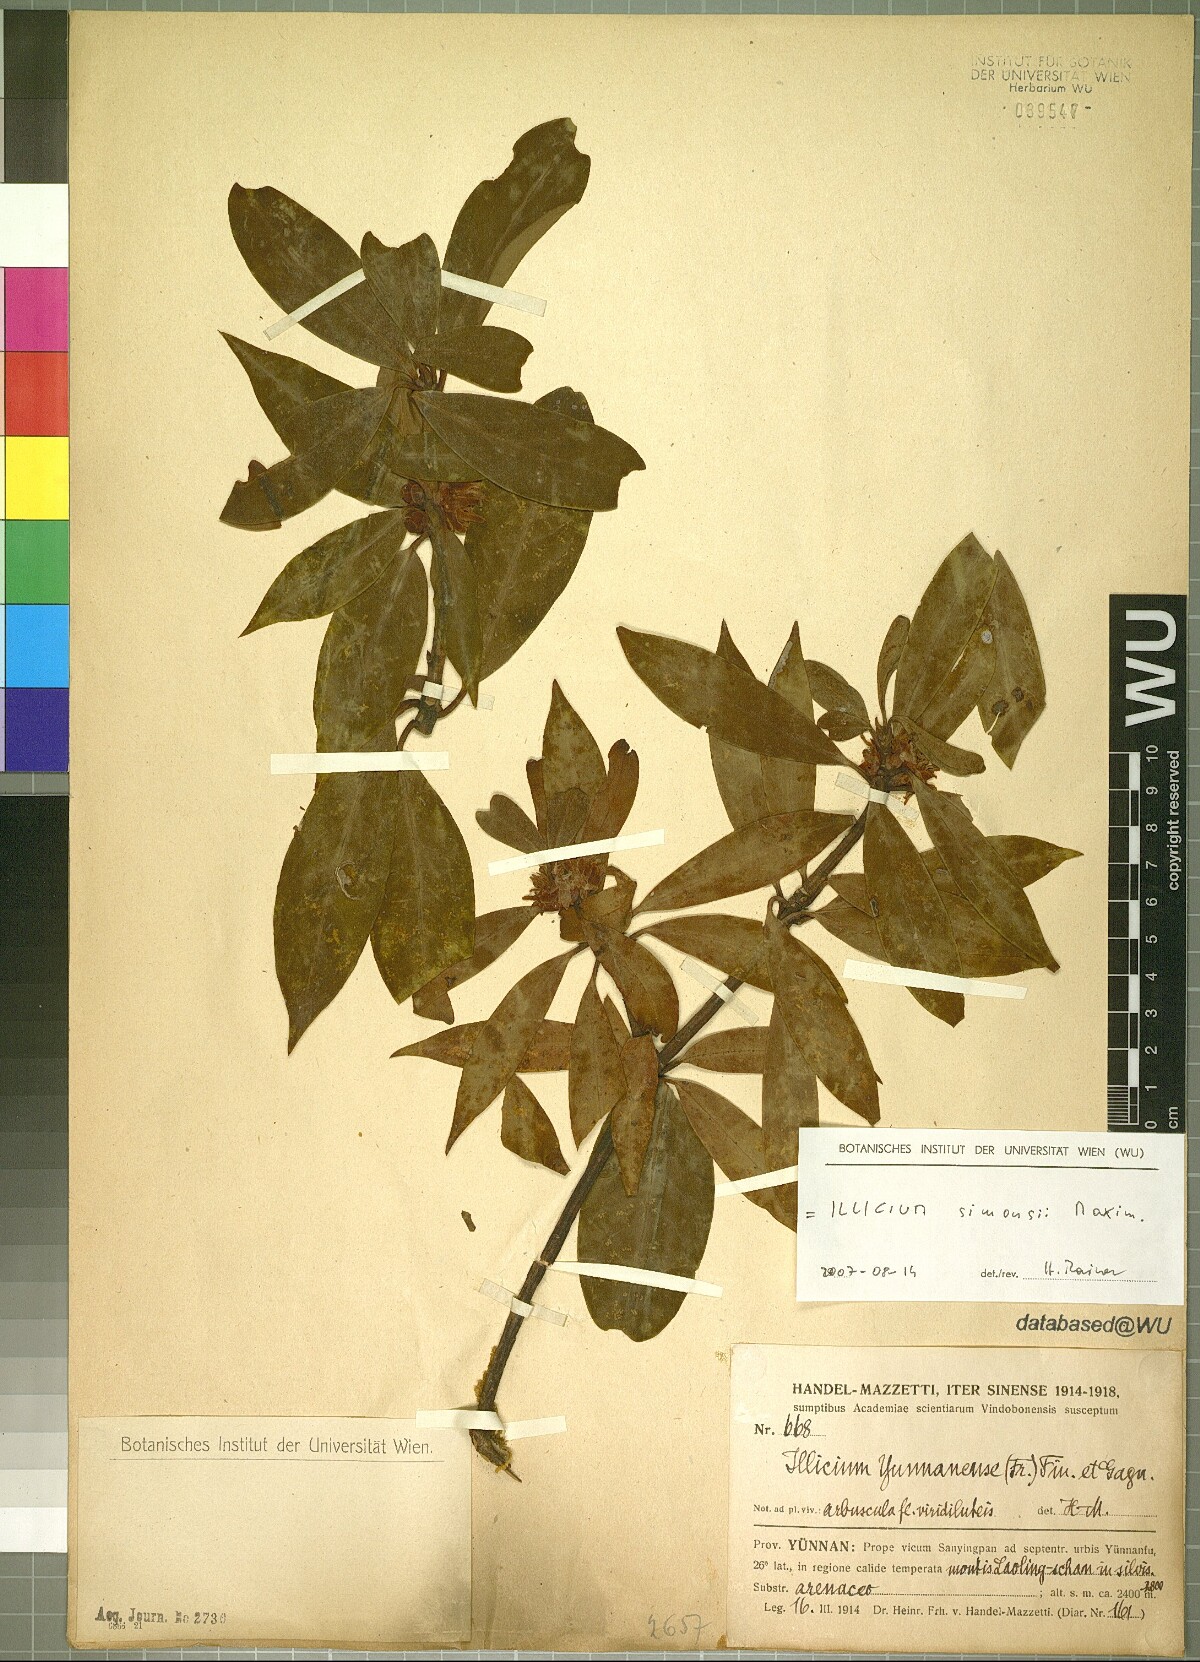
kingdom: Plantae
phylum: Tracheophyta
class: Magnoliopsida
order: Austrobaileyales
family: Schisandraceae
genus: Illicium
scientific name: Illicium simonsii
